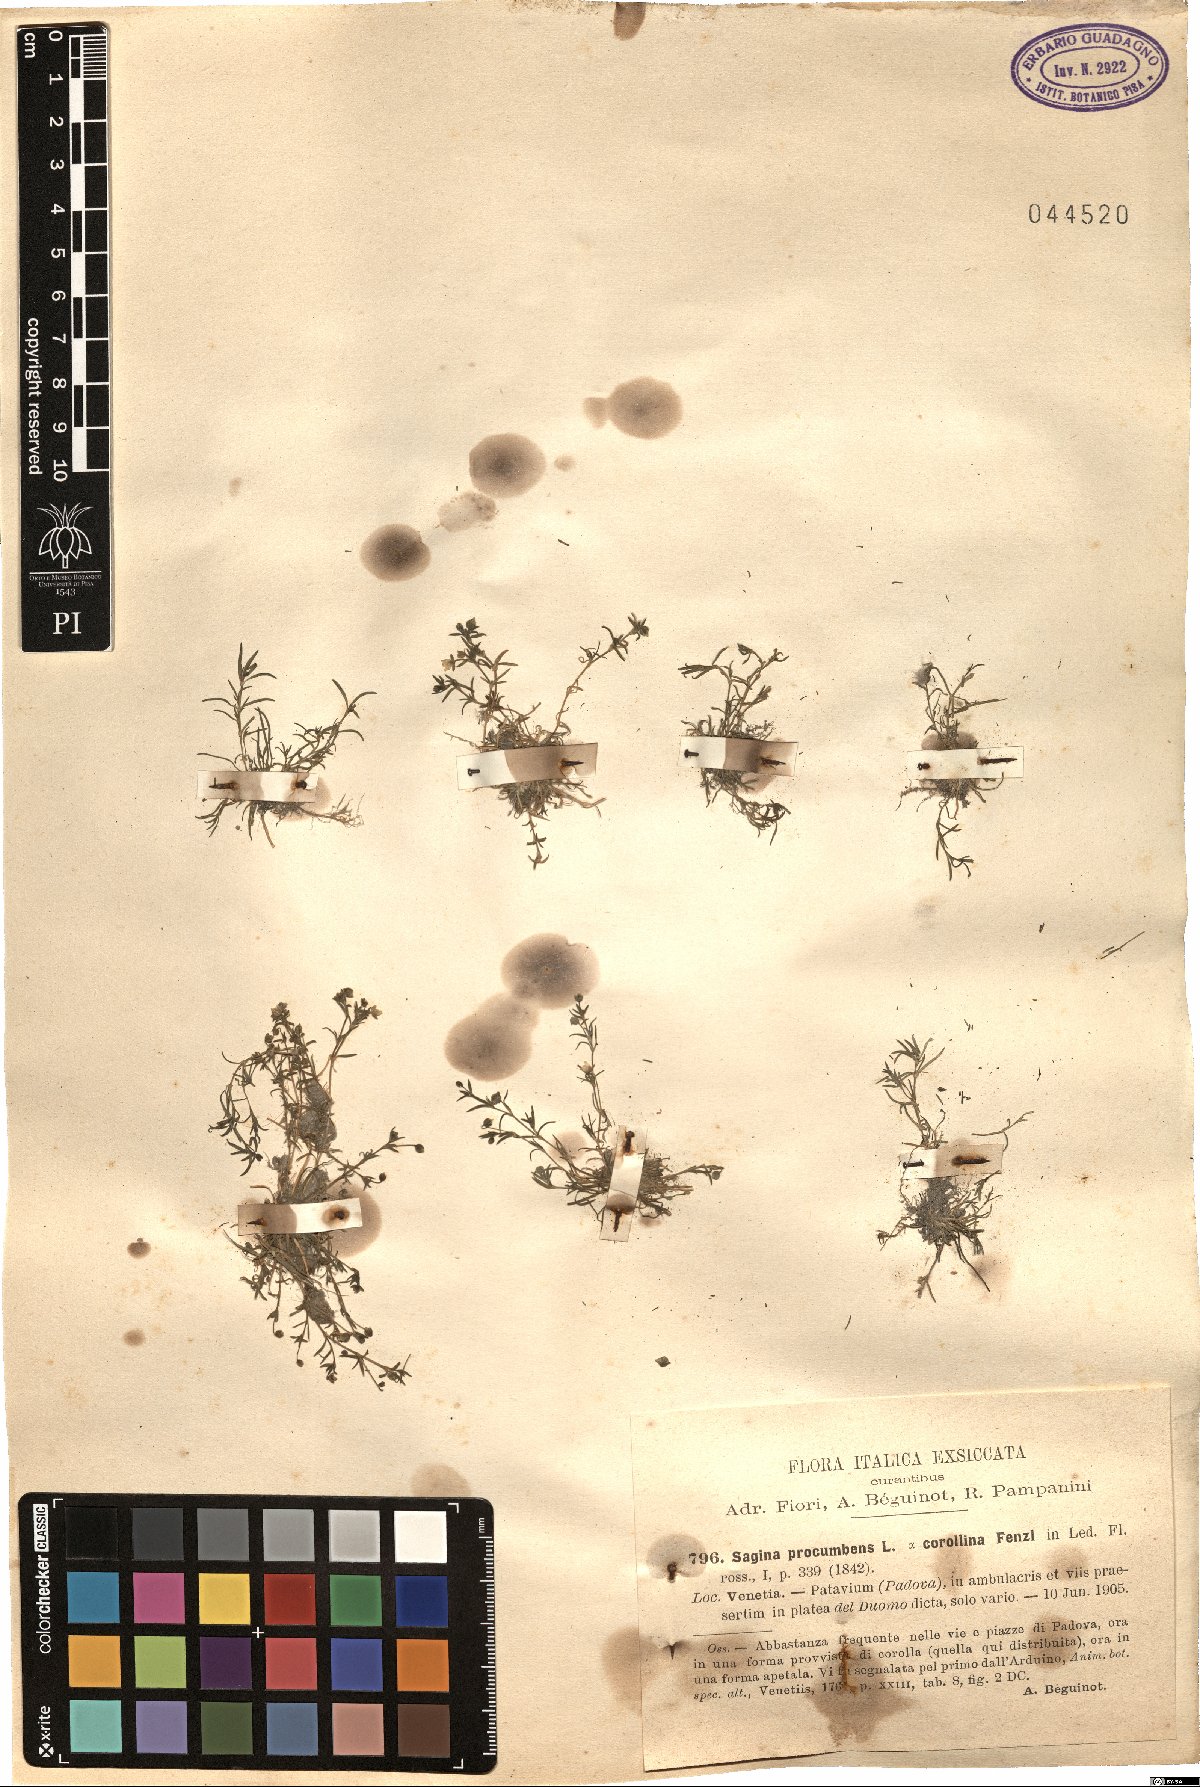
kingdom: Plantae
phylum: Tracheophyta
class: Magnoliopsida
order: Caryophyllales
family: Caryophyllaceae
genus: Sagina
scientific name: Sagina procumbens
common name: Procumbent pearlwort
